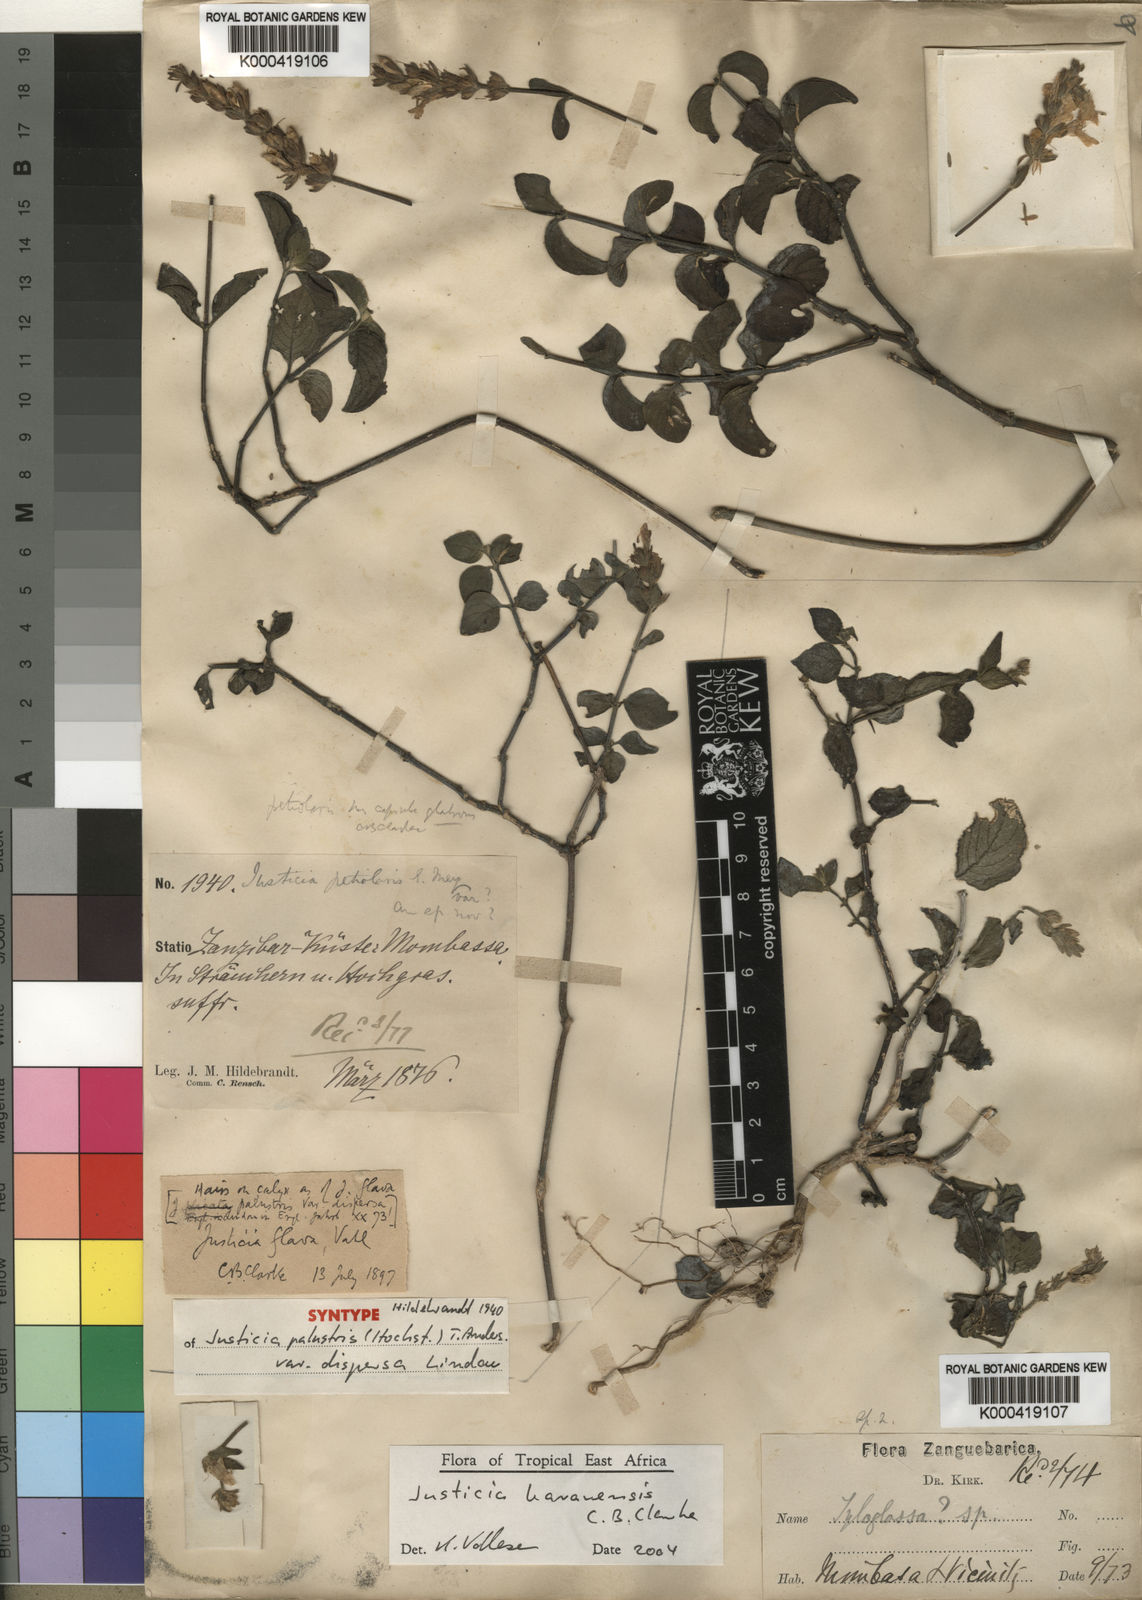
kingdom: Plantae
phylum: Tracheophyta
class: Magnoliopsida
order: Lamiales
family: Acanthaceae
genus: Justicia
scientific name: Justicia baravensis
